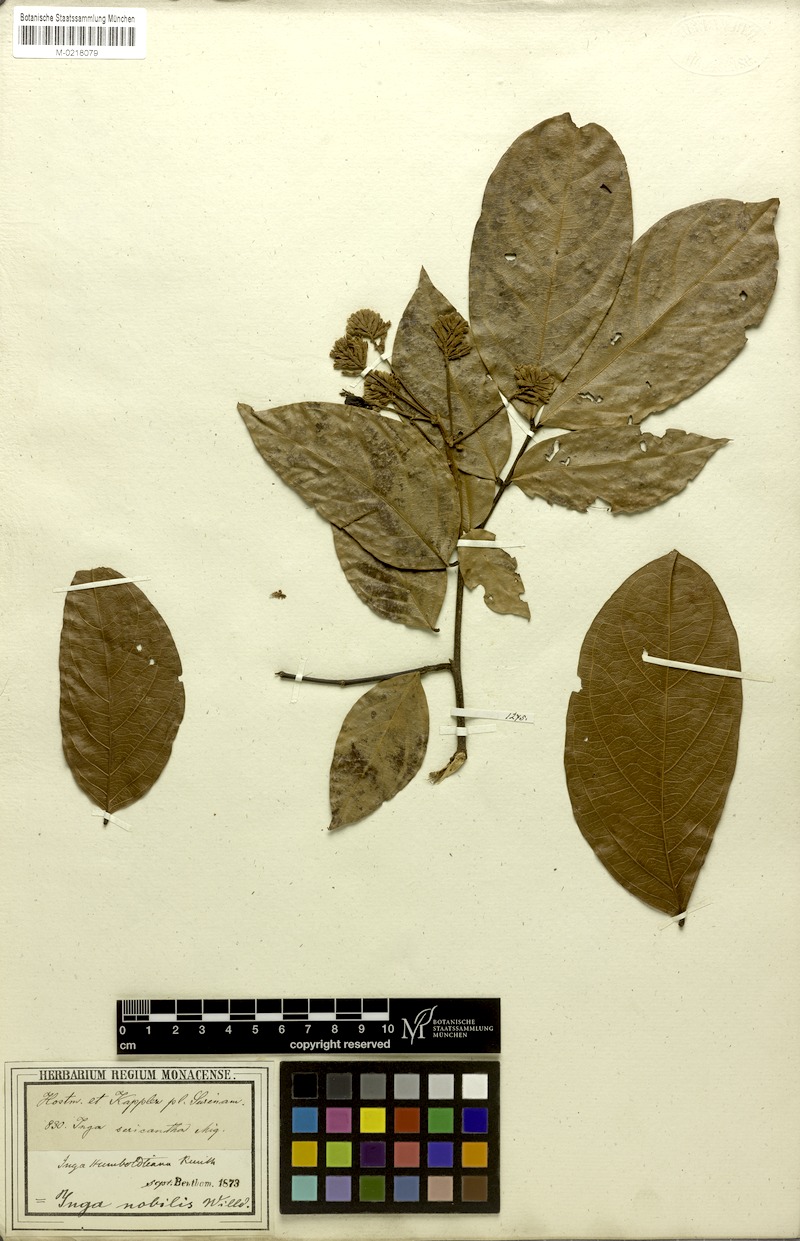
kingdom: Plantae
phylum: Tracheophyta
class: Magnoliopsida
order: Fabales
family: Fabaceae
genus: Inga
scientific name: Inga nobilis
